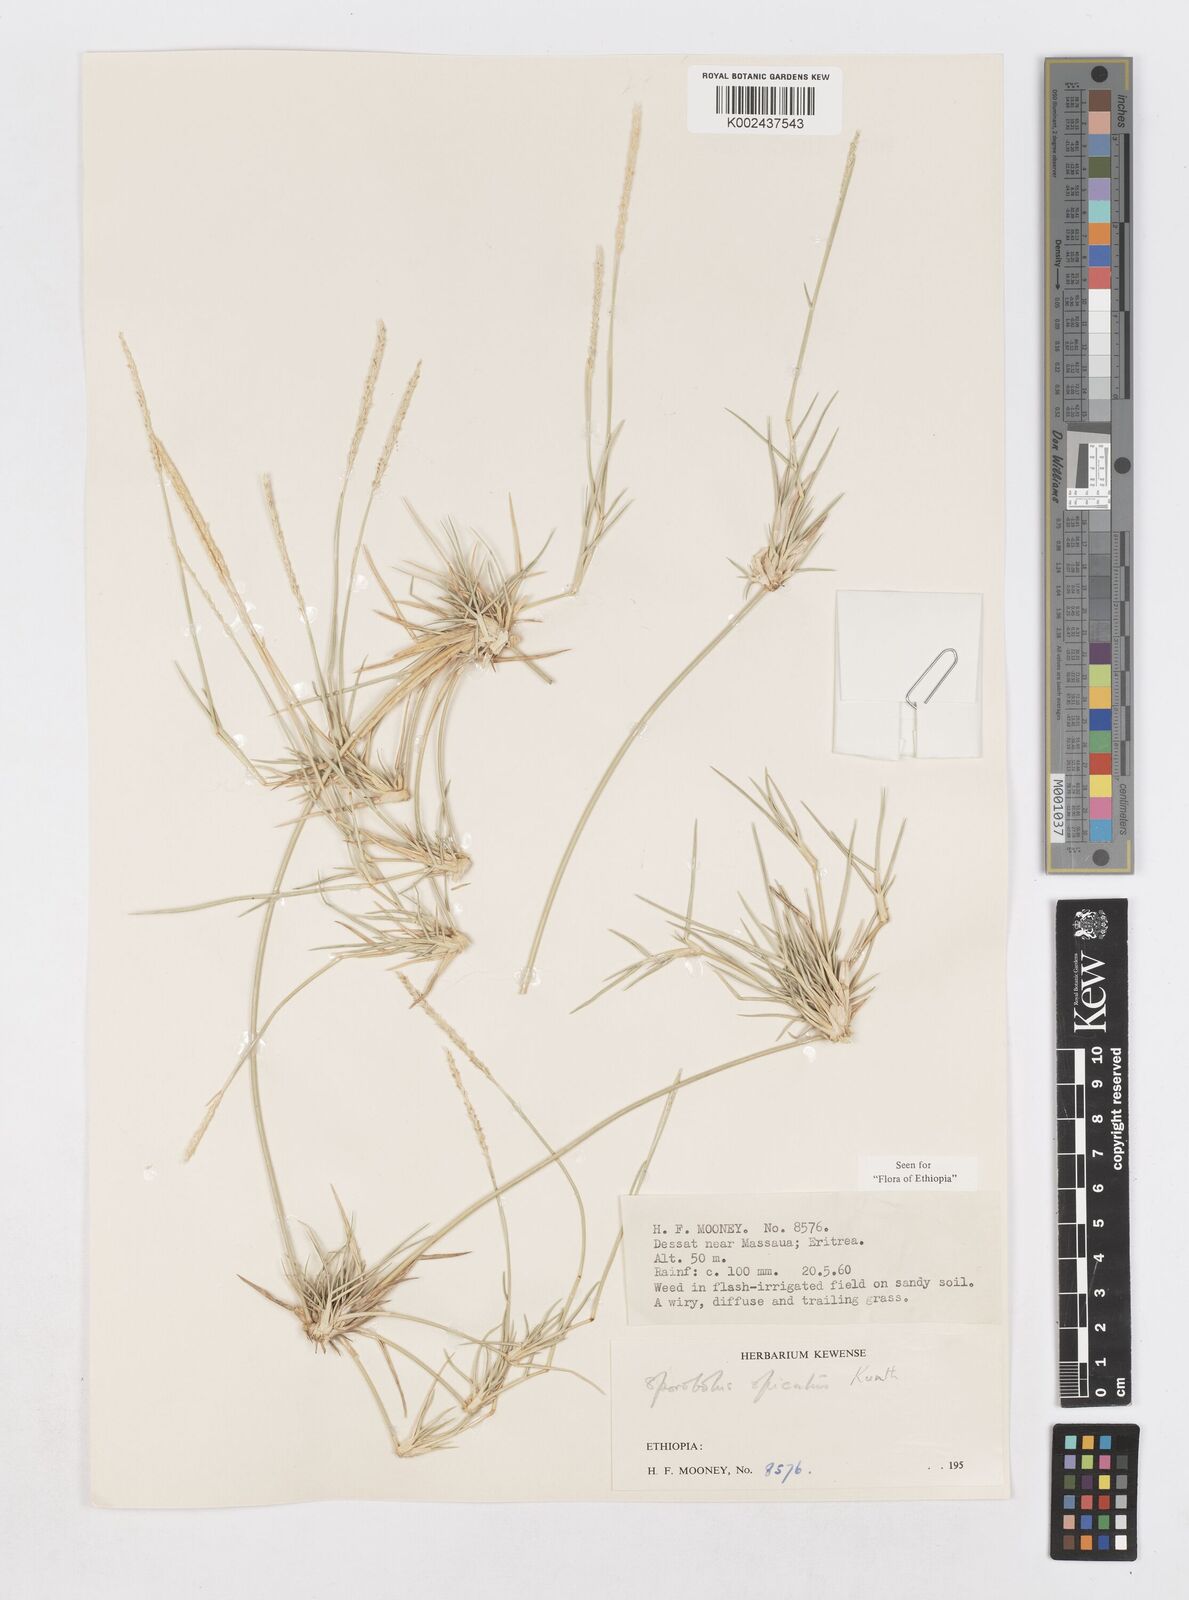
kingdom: Plantae
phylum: Tracheophyta
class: Liliopsida
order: Poales
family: Poaceae
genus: Sporobolus
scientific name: Sporobolus spicatus
